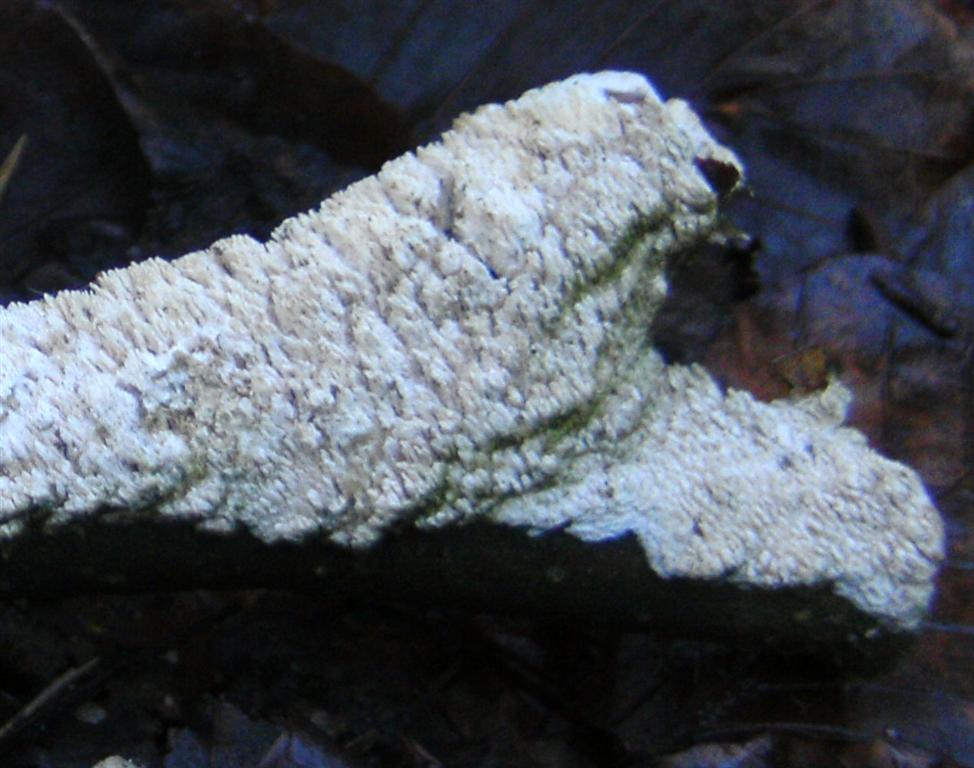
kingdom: Fungi
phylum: Basidiomycota
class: Agaricomycetes
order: Hymenochaetales
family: Schizoporaceae
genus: Schizopora
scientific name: Schizopora paradoxa
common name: hvid tandsvamp
